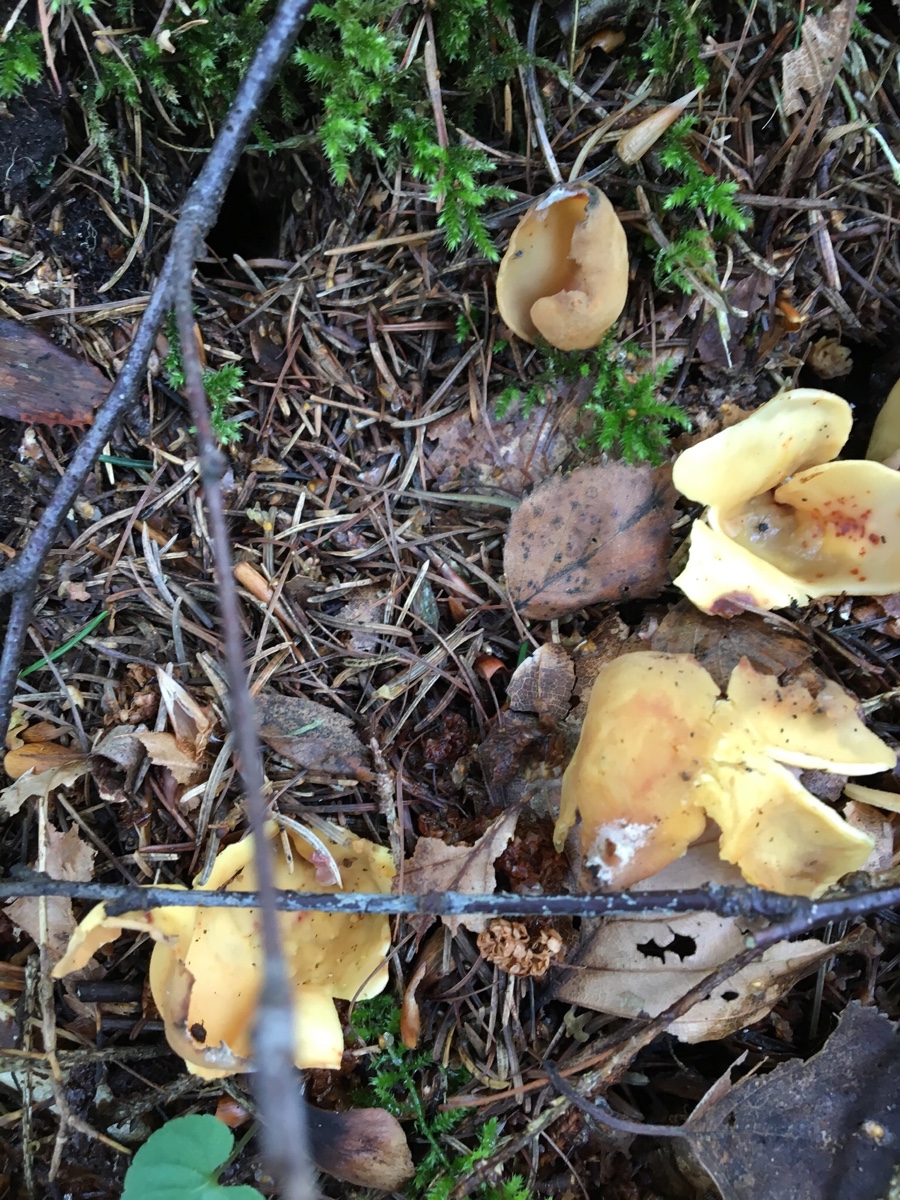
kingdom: Fungi
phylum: Ascomycota
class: Pezizomycetes
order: Pezizales
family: Otideaceae
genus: Otidea
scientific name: Otidea onotica
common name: æsel-ørebæger
